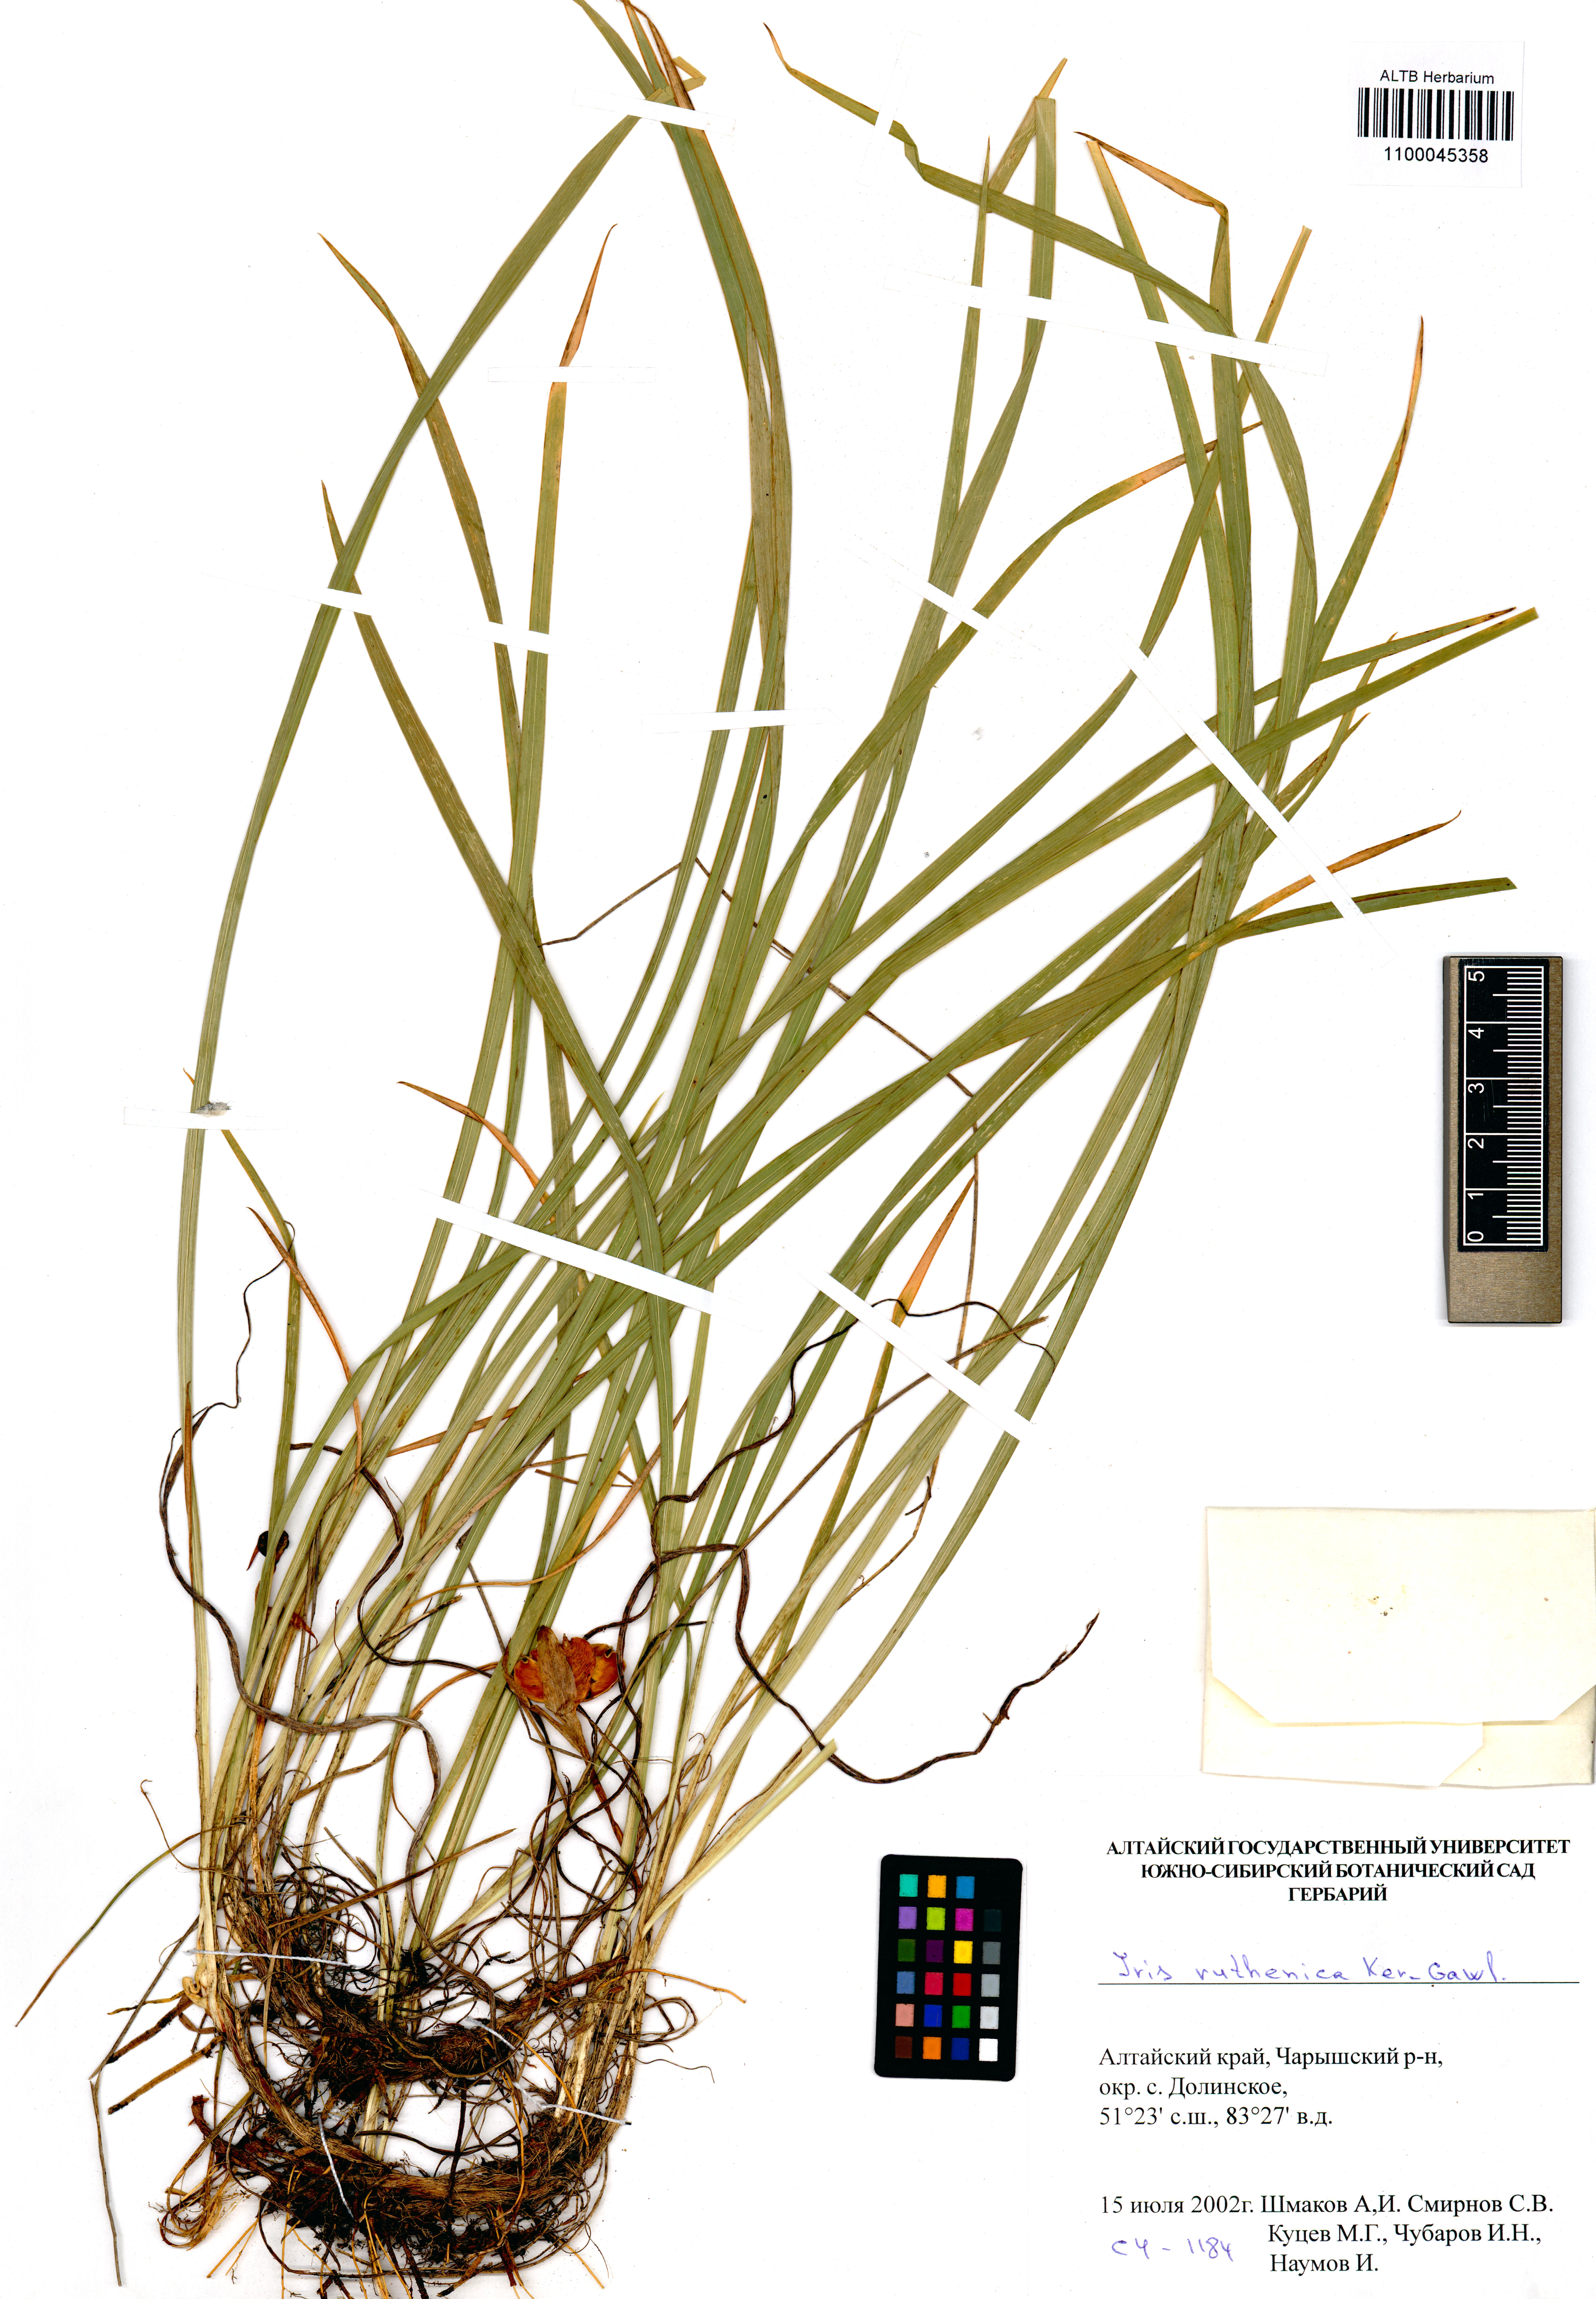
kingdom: Plantae
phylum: Tracheophyta
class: Liliopsida
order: Asparagales
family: Iridaceae
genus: Iris
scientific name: Iris ruthenica
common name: Purple-bract iris
